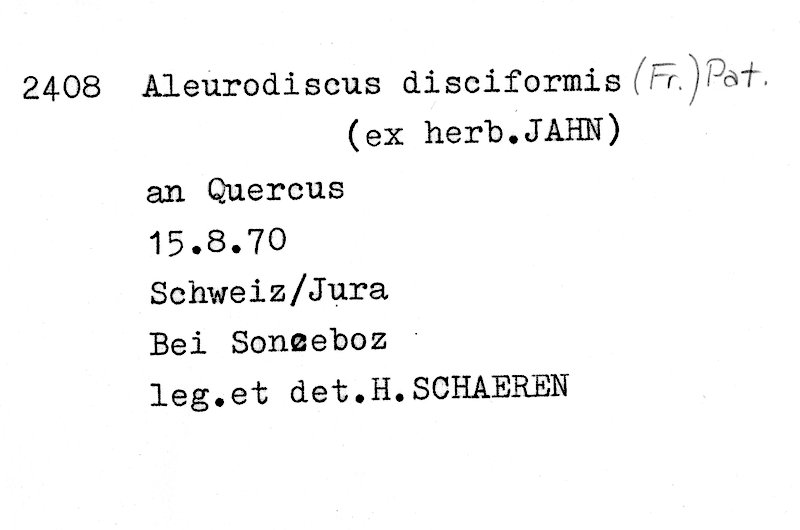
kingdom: Plantae
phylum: Tracheophyta
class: Magnoliopsida
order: Fagales
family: Fagaceae
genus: Quercus
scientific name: Quercus
